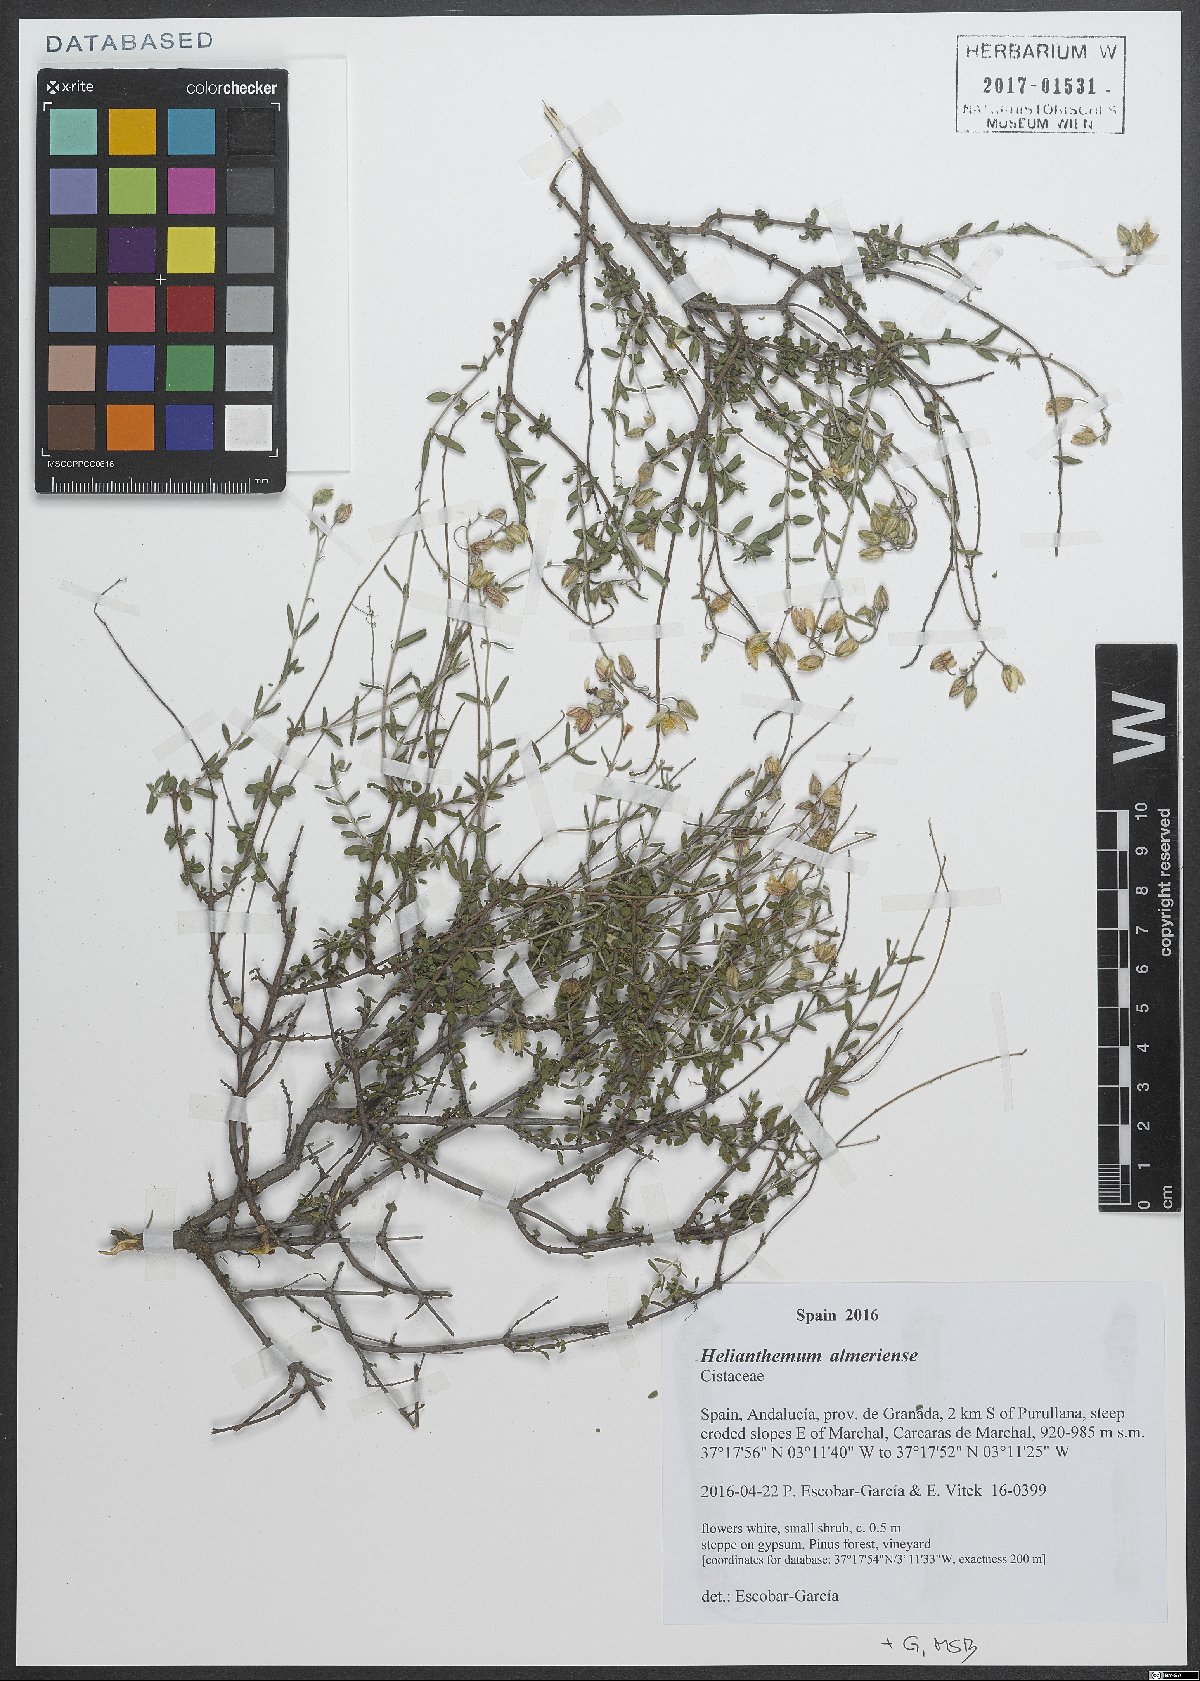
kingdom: Plantae
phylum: Tracheophyta
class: Magnoliopsida
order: Malvales
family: Cistaceae
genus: Helianthemum
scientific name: Helianthemum almeriense
